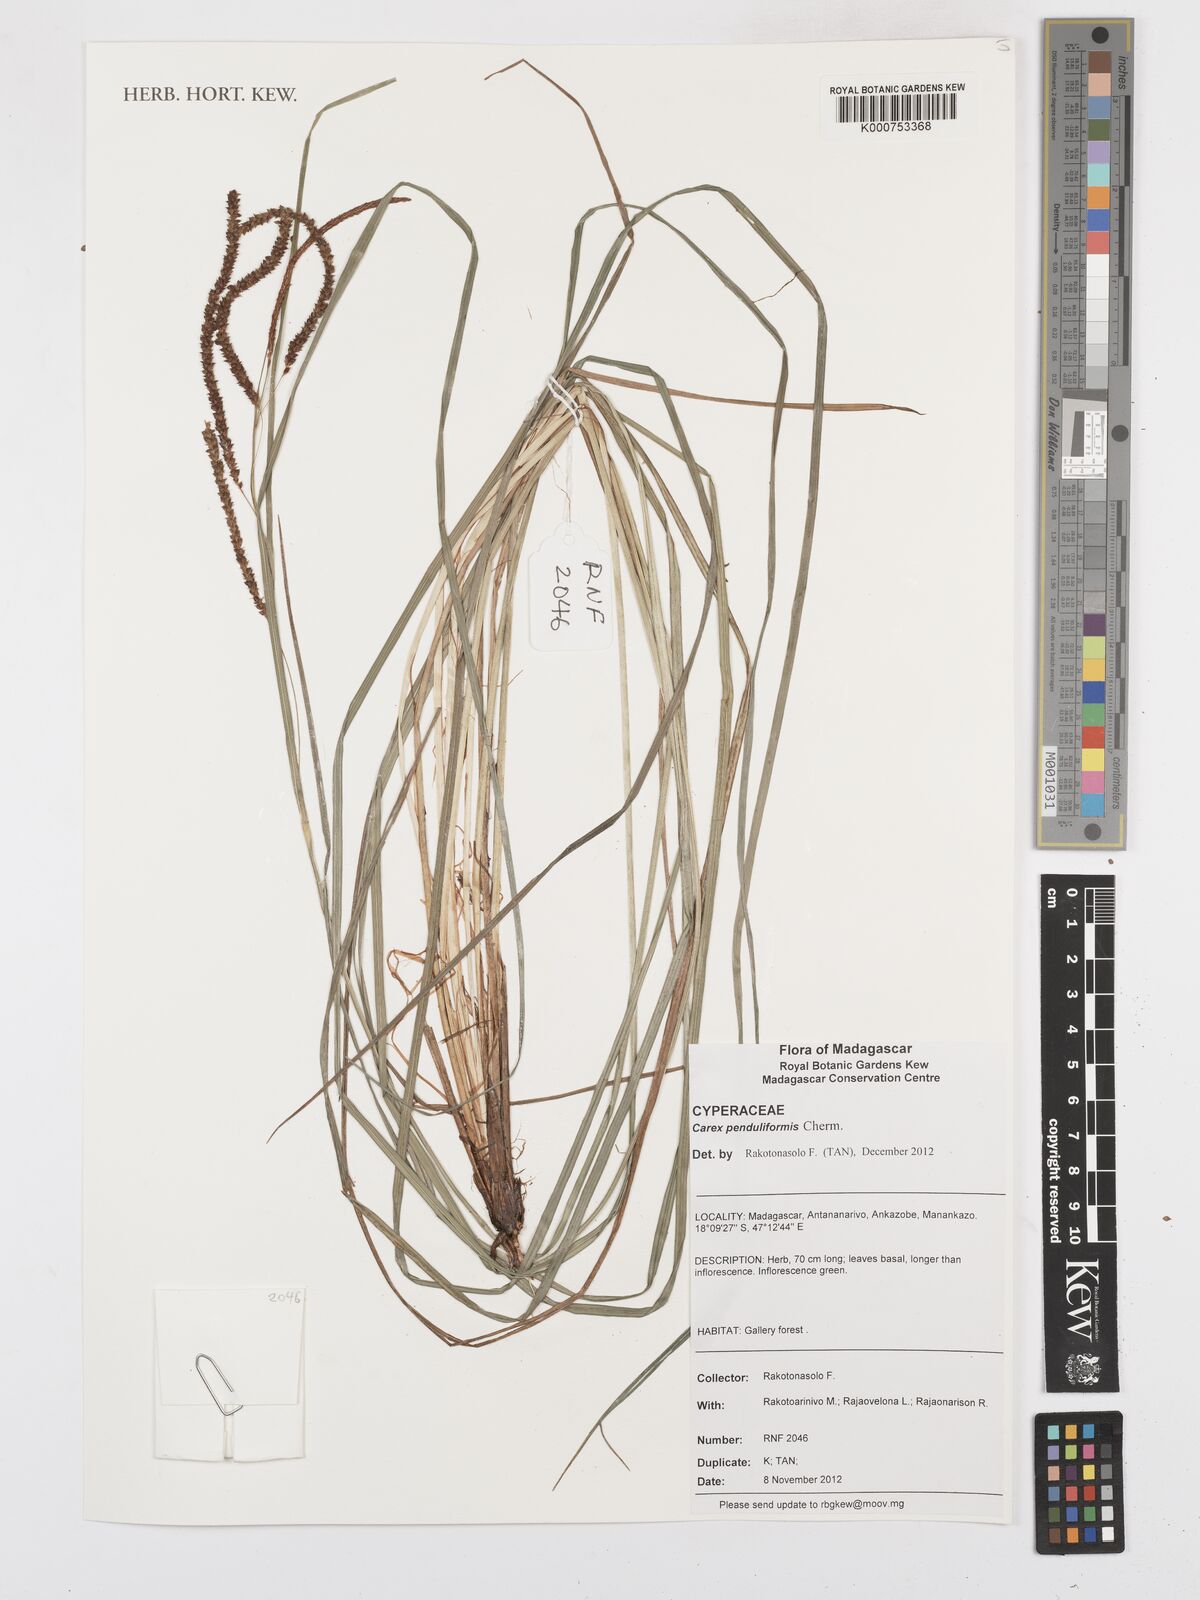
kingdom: Plantae
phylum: Tracheophyta
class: Liliopsida
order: Poales
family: Cyperaceae
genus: Carex
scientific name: Carex penduliformis
